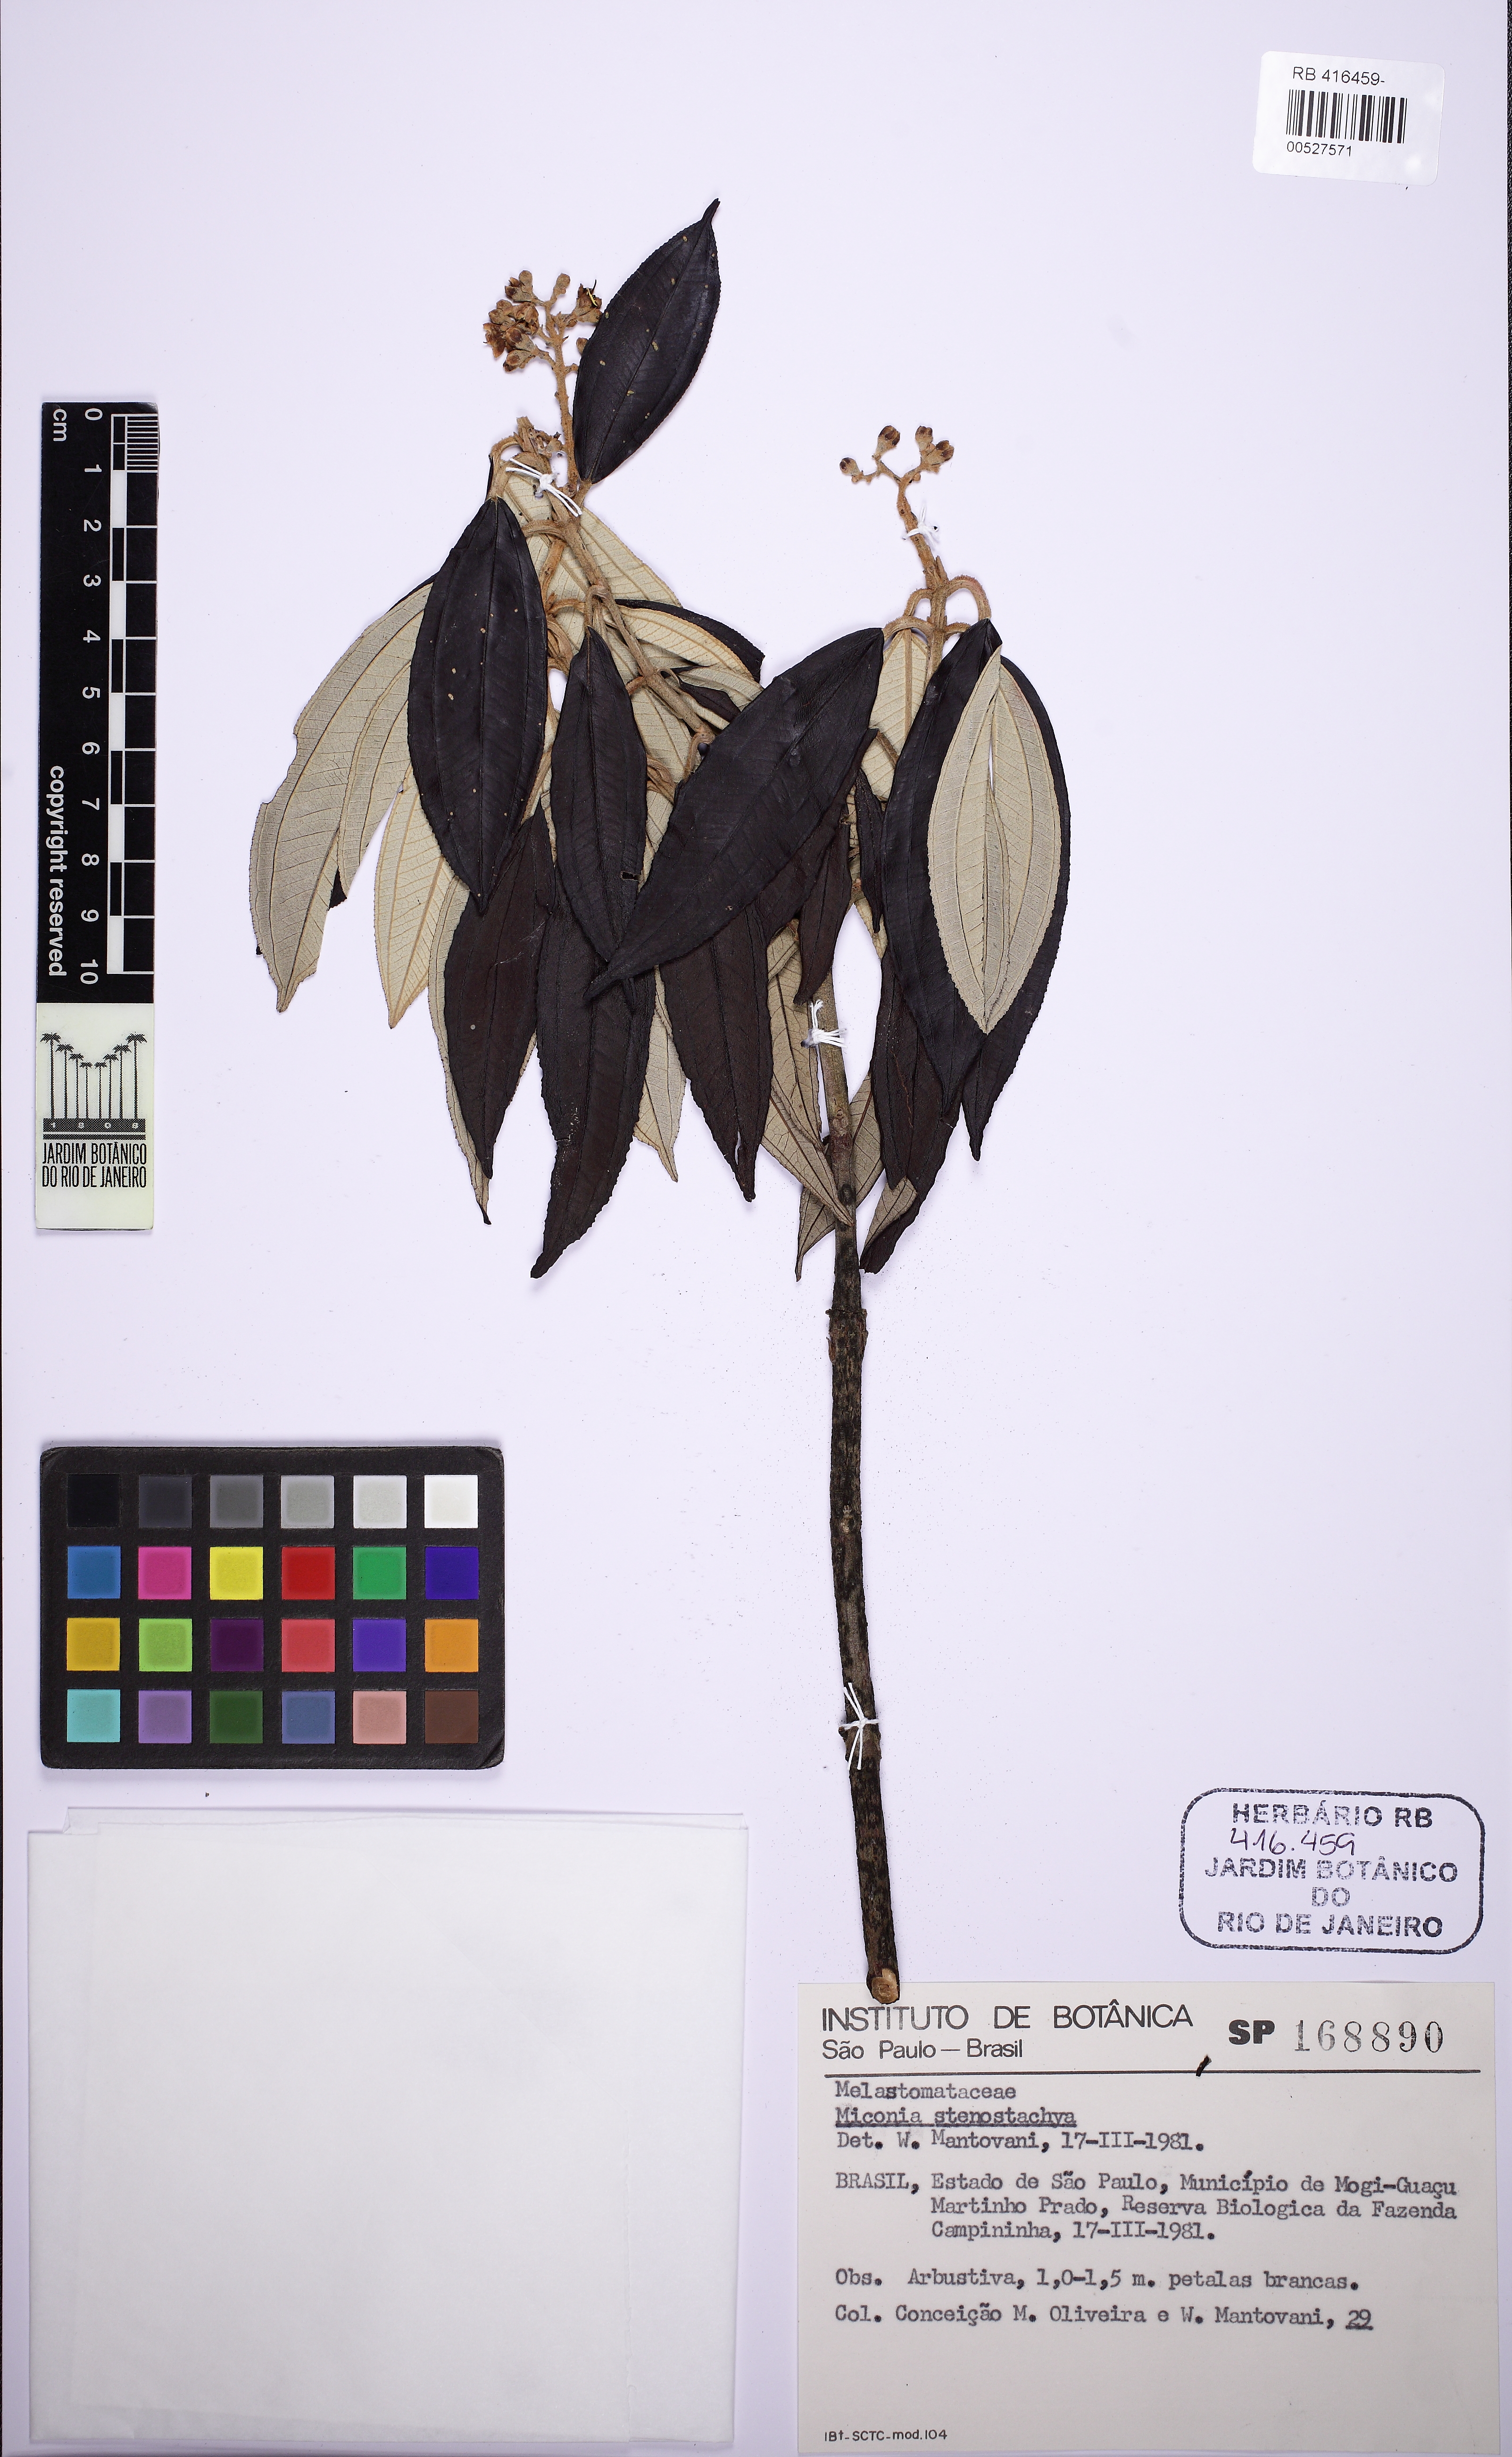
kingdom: Plantae
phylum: Tracheophyta
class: Magnoliopsida
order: Myrtales
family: Melastomataceae
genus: Miconia
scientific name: Miconia stenostachya
